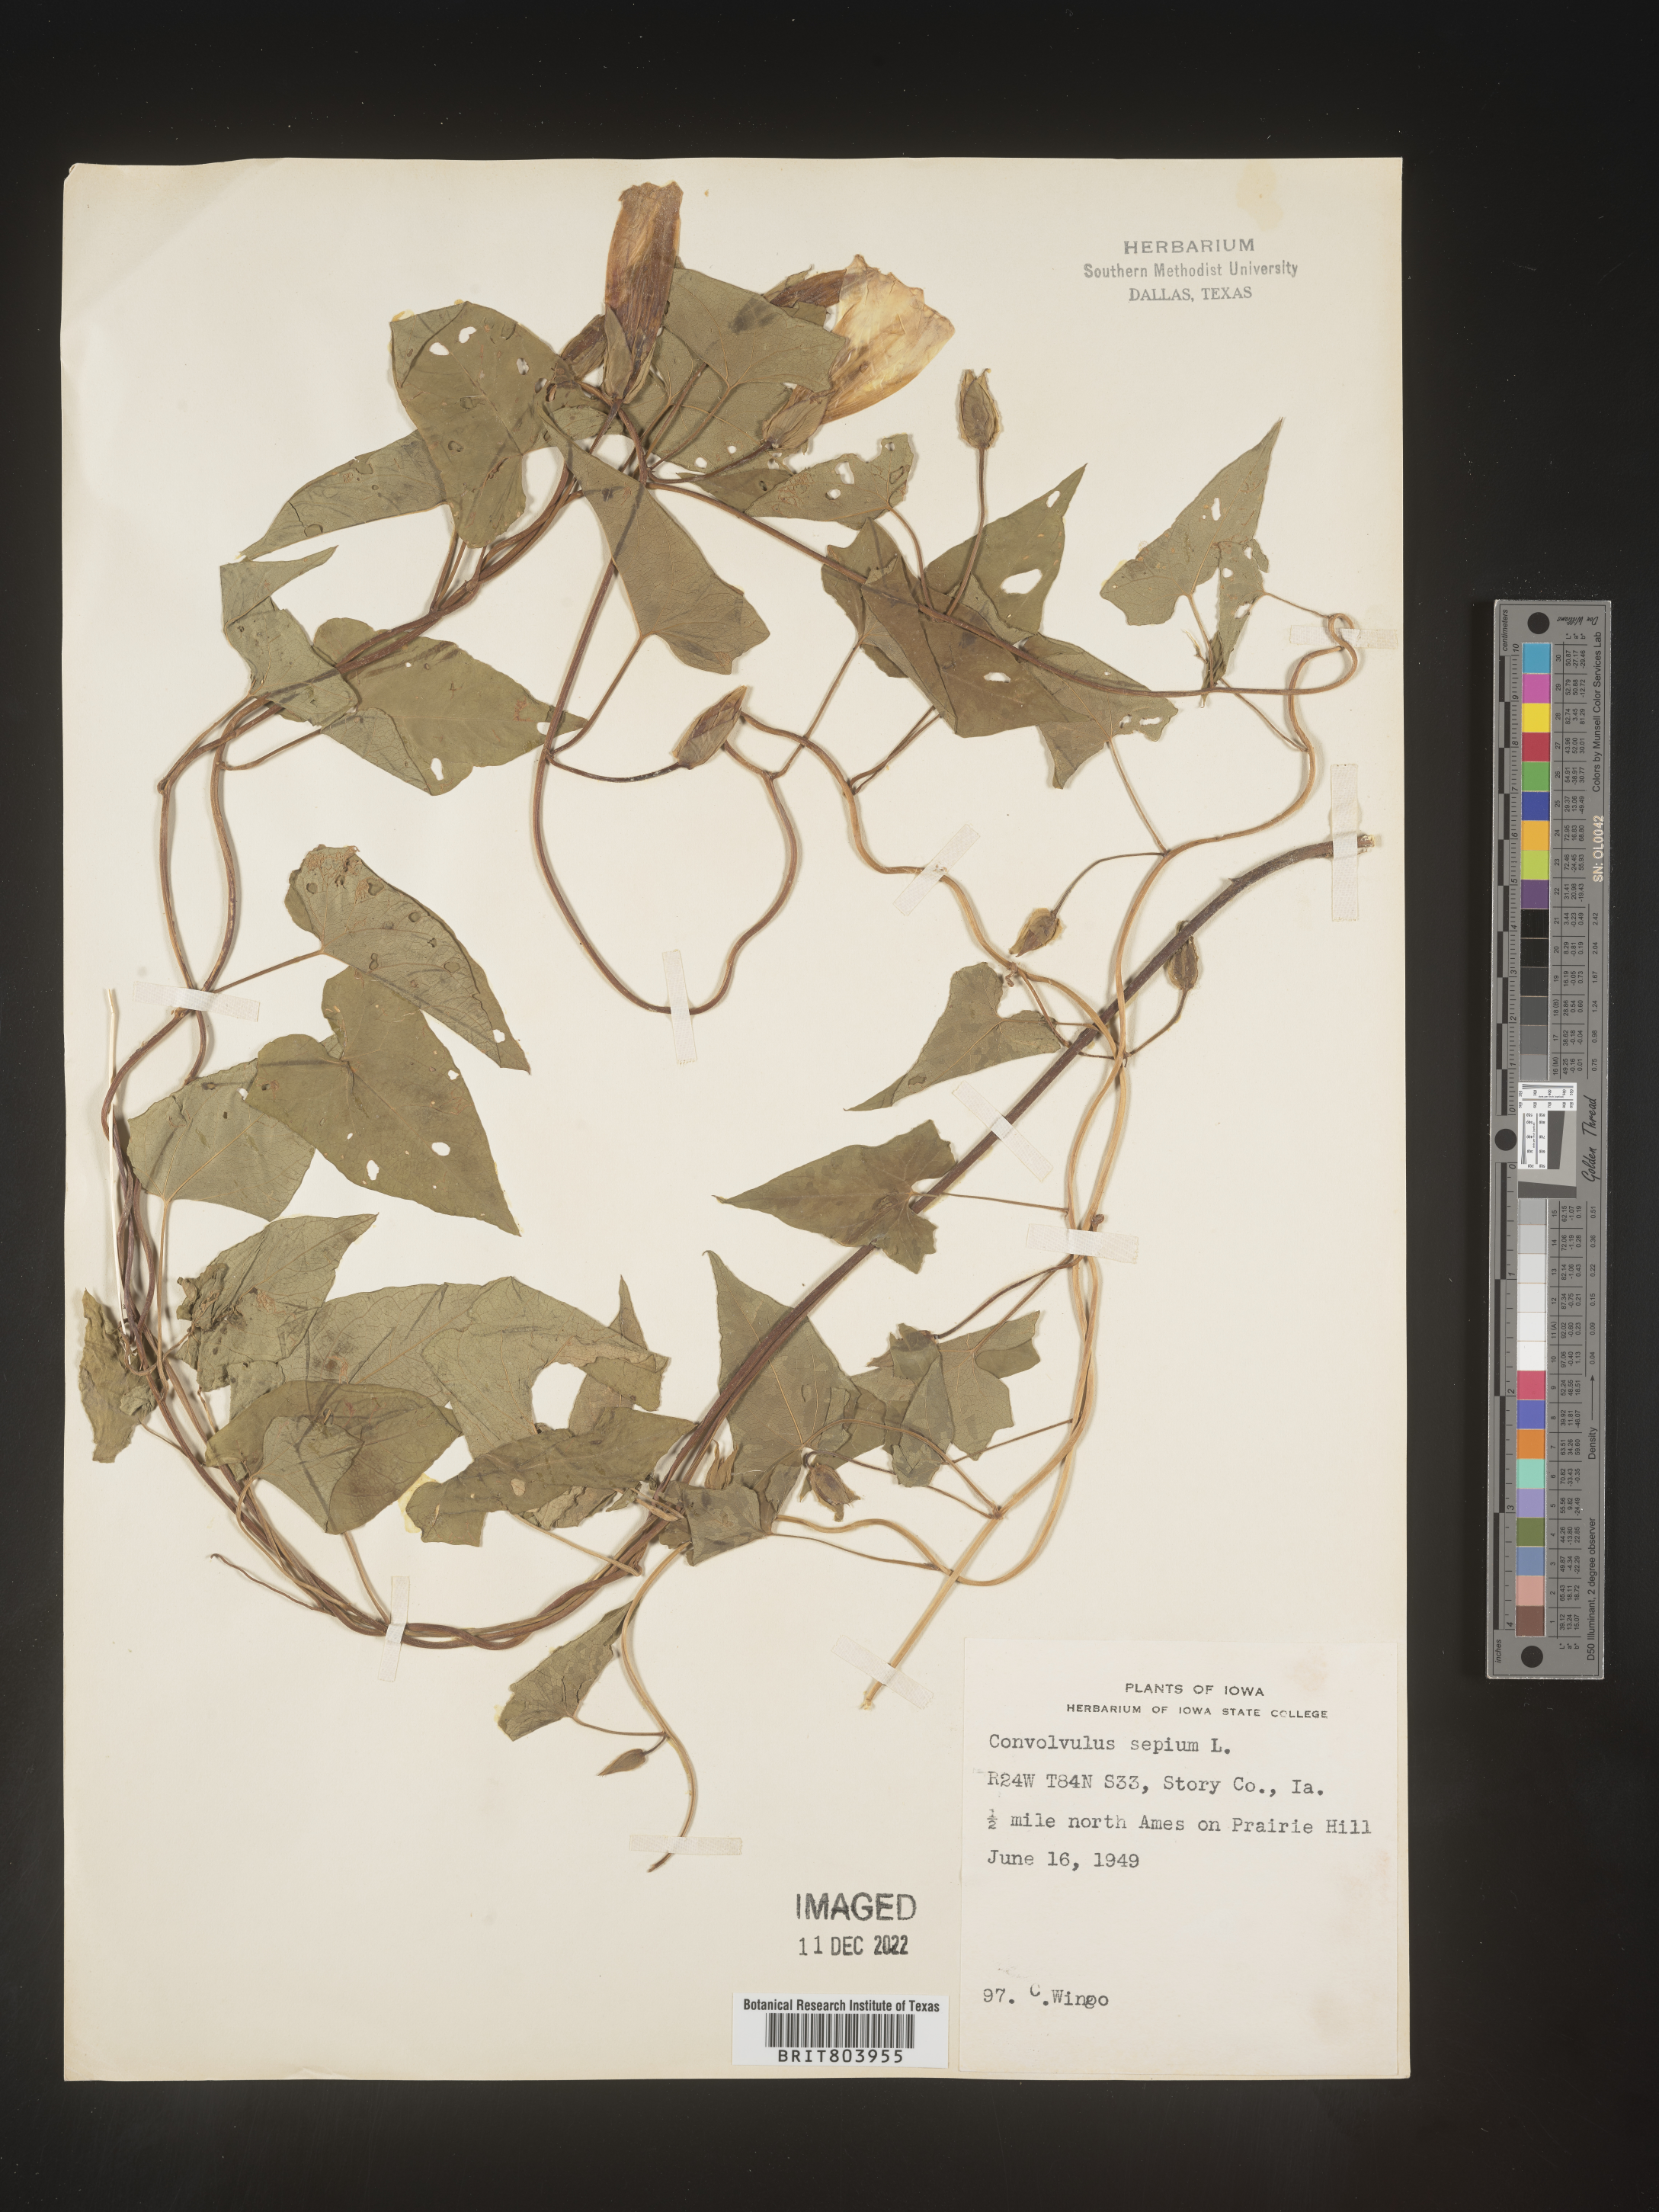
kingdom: Plantae
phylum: Tracheophyta
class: Magnoliopsida
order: Solanales
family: Convolvulaceae
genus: Calystegia
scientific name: Calystegia sepium
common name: Hedge bindweed
